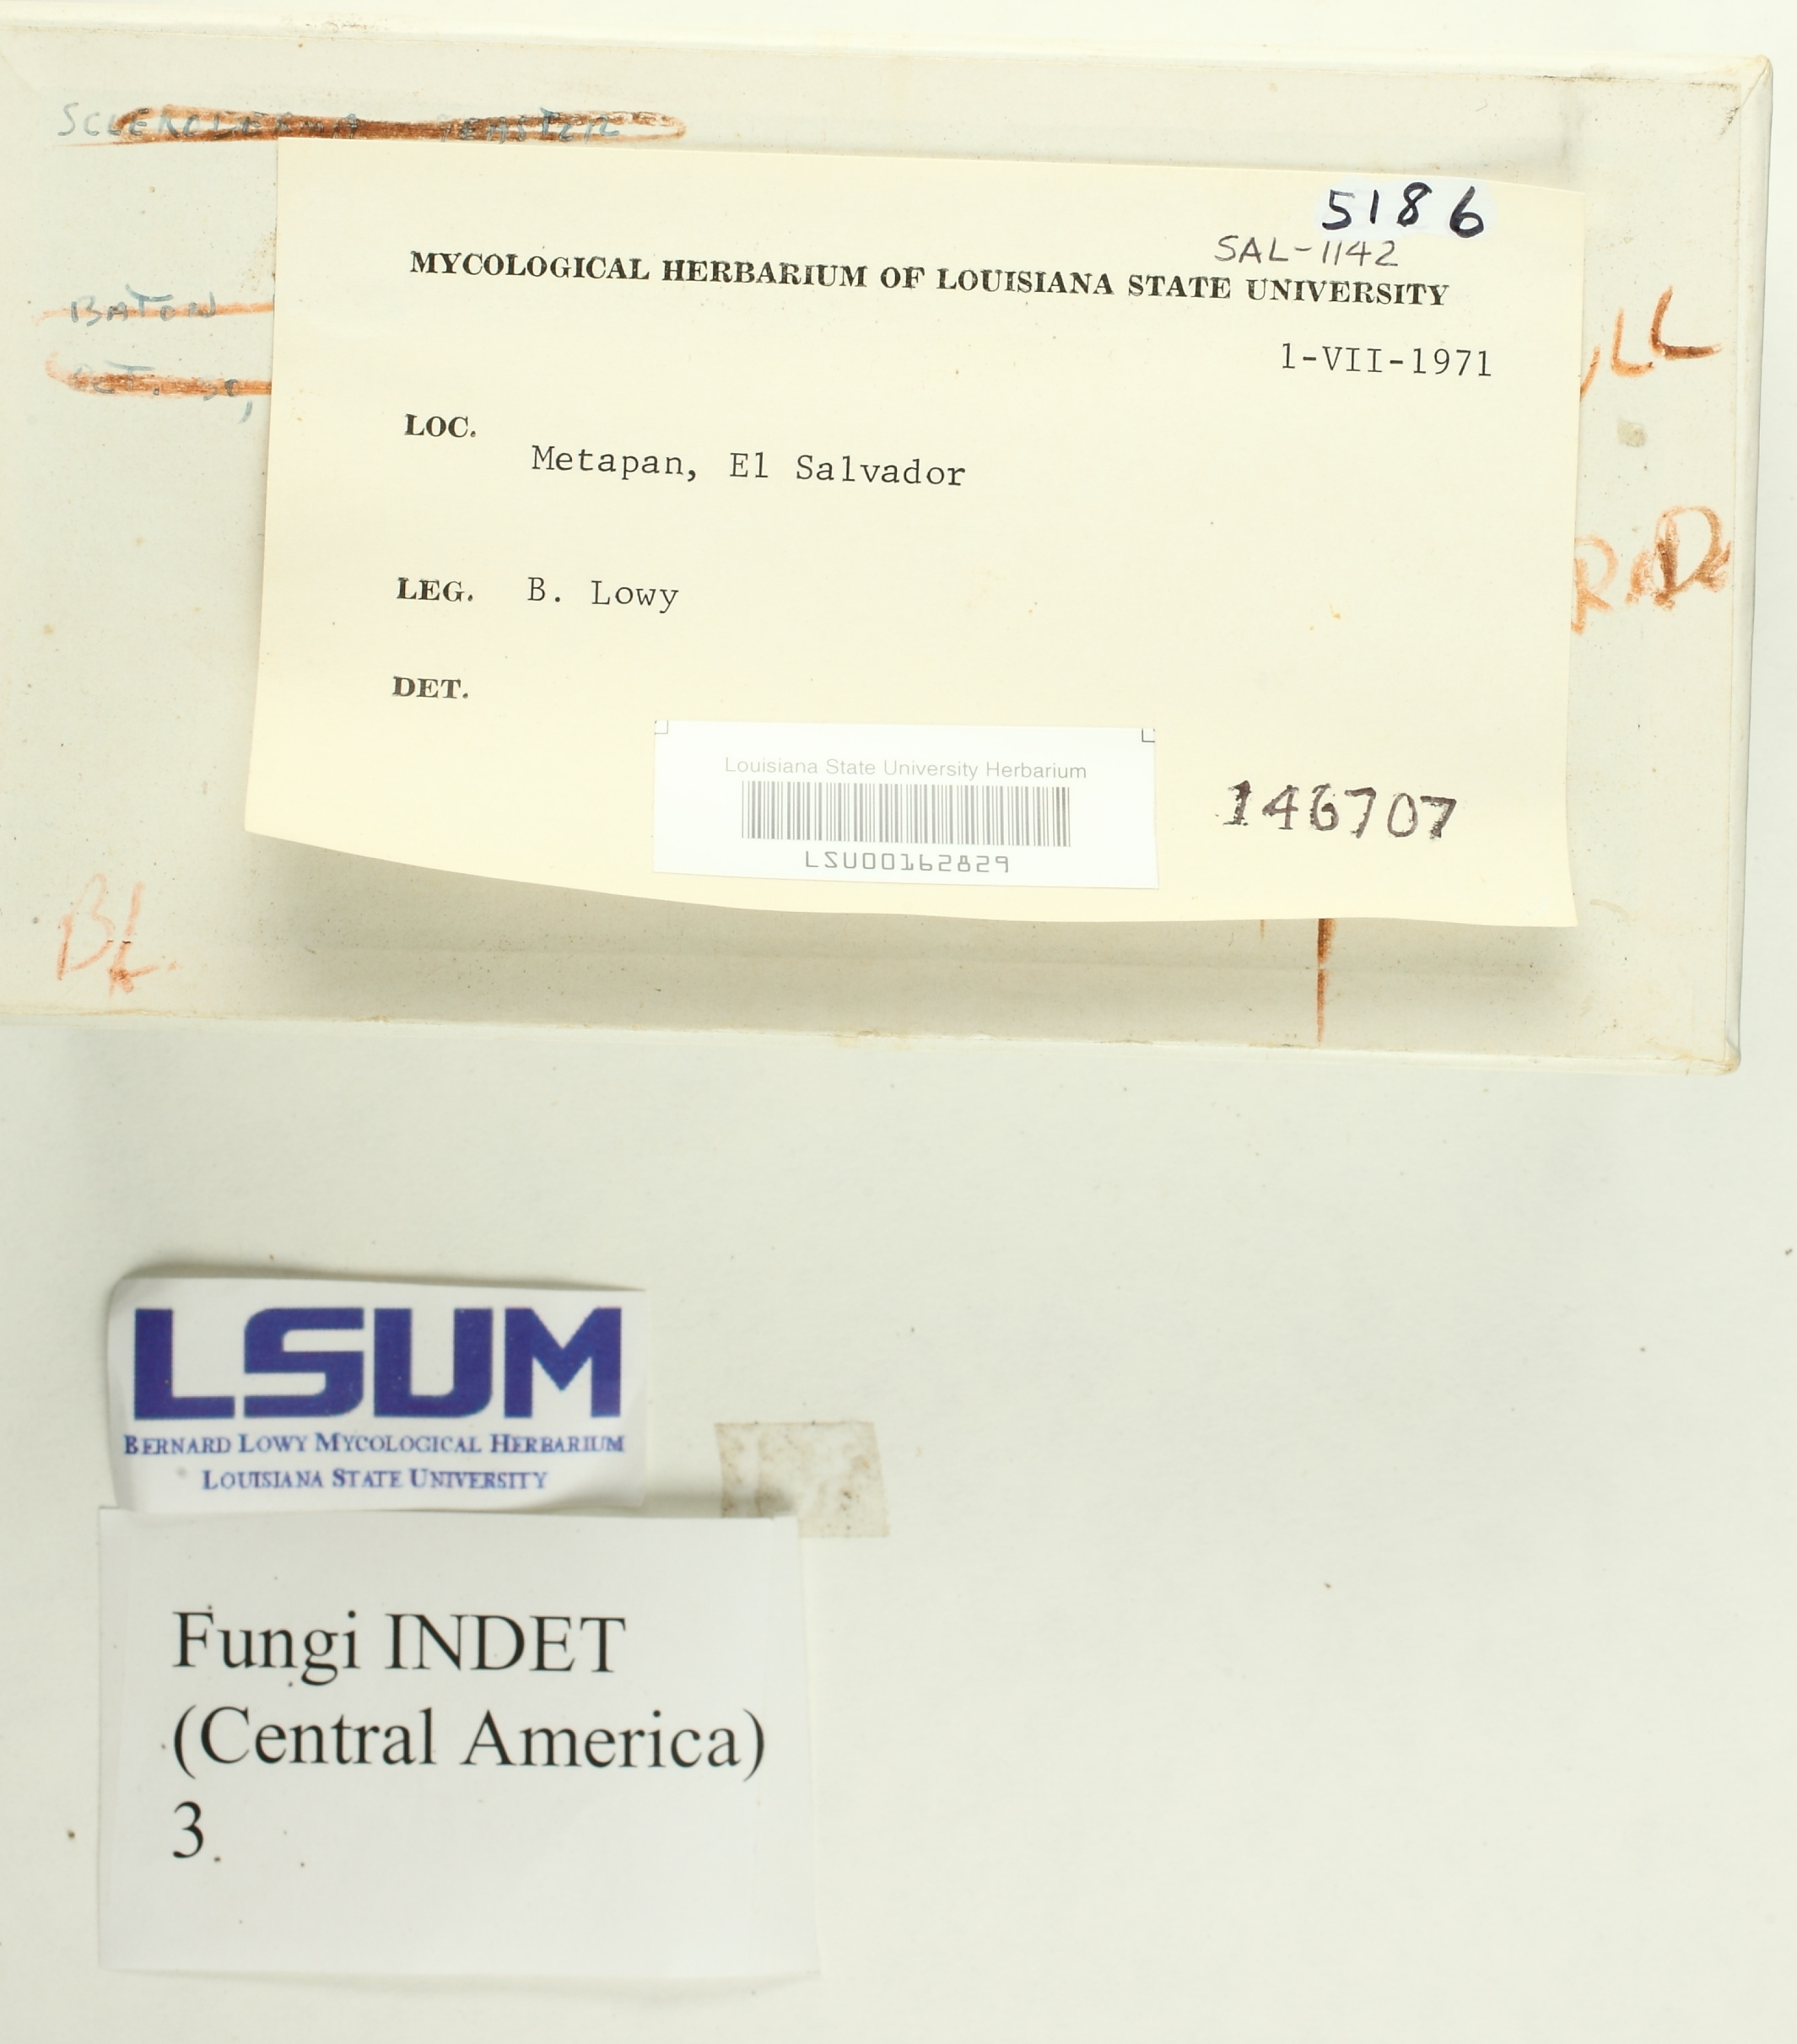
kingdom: Fungi
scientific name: Fungi
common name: Fungi
